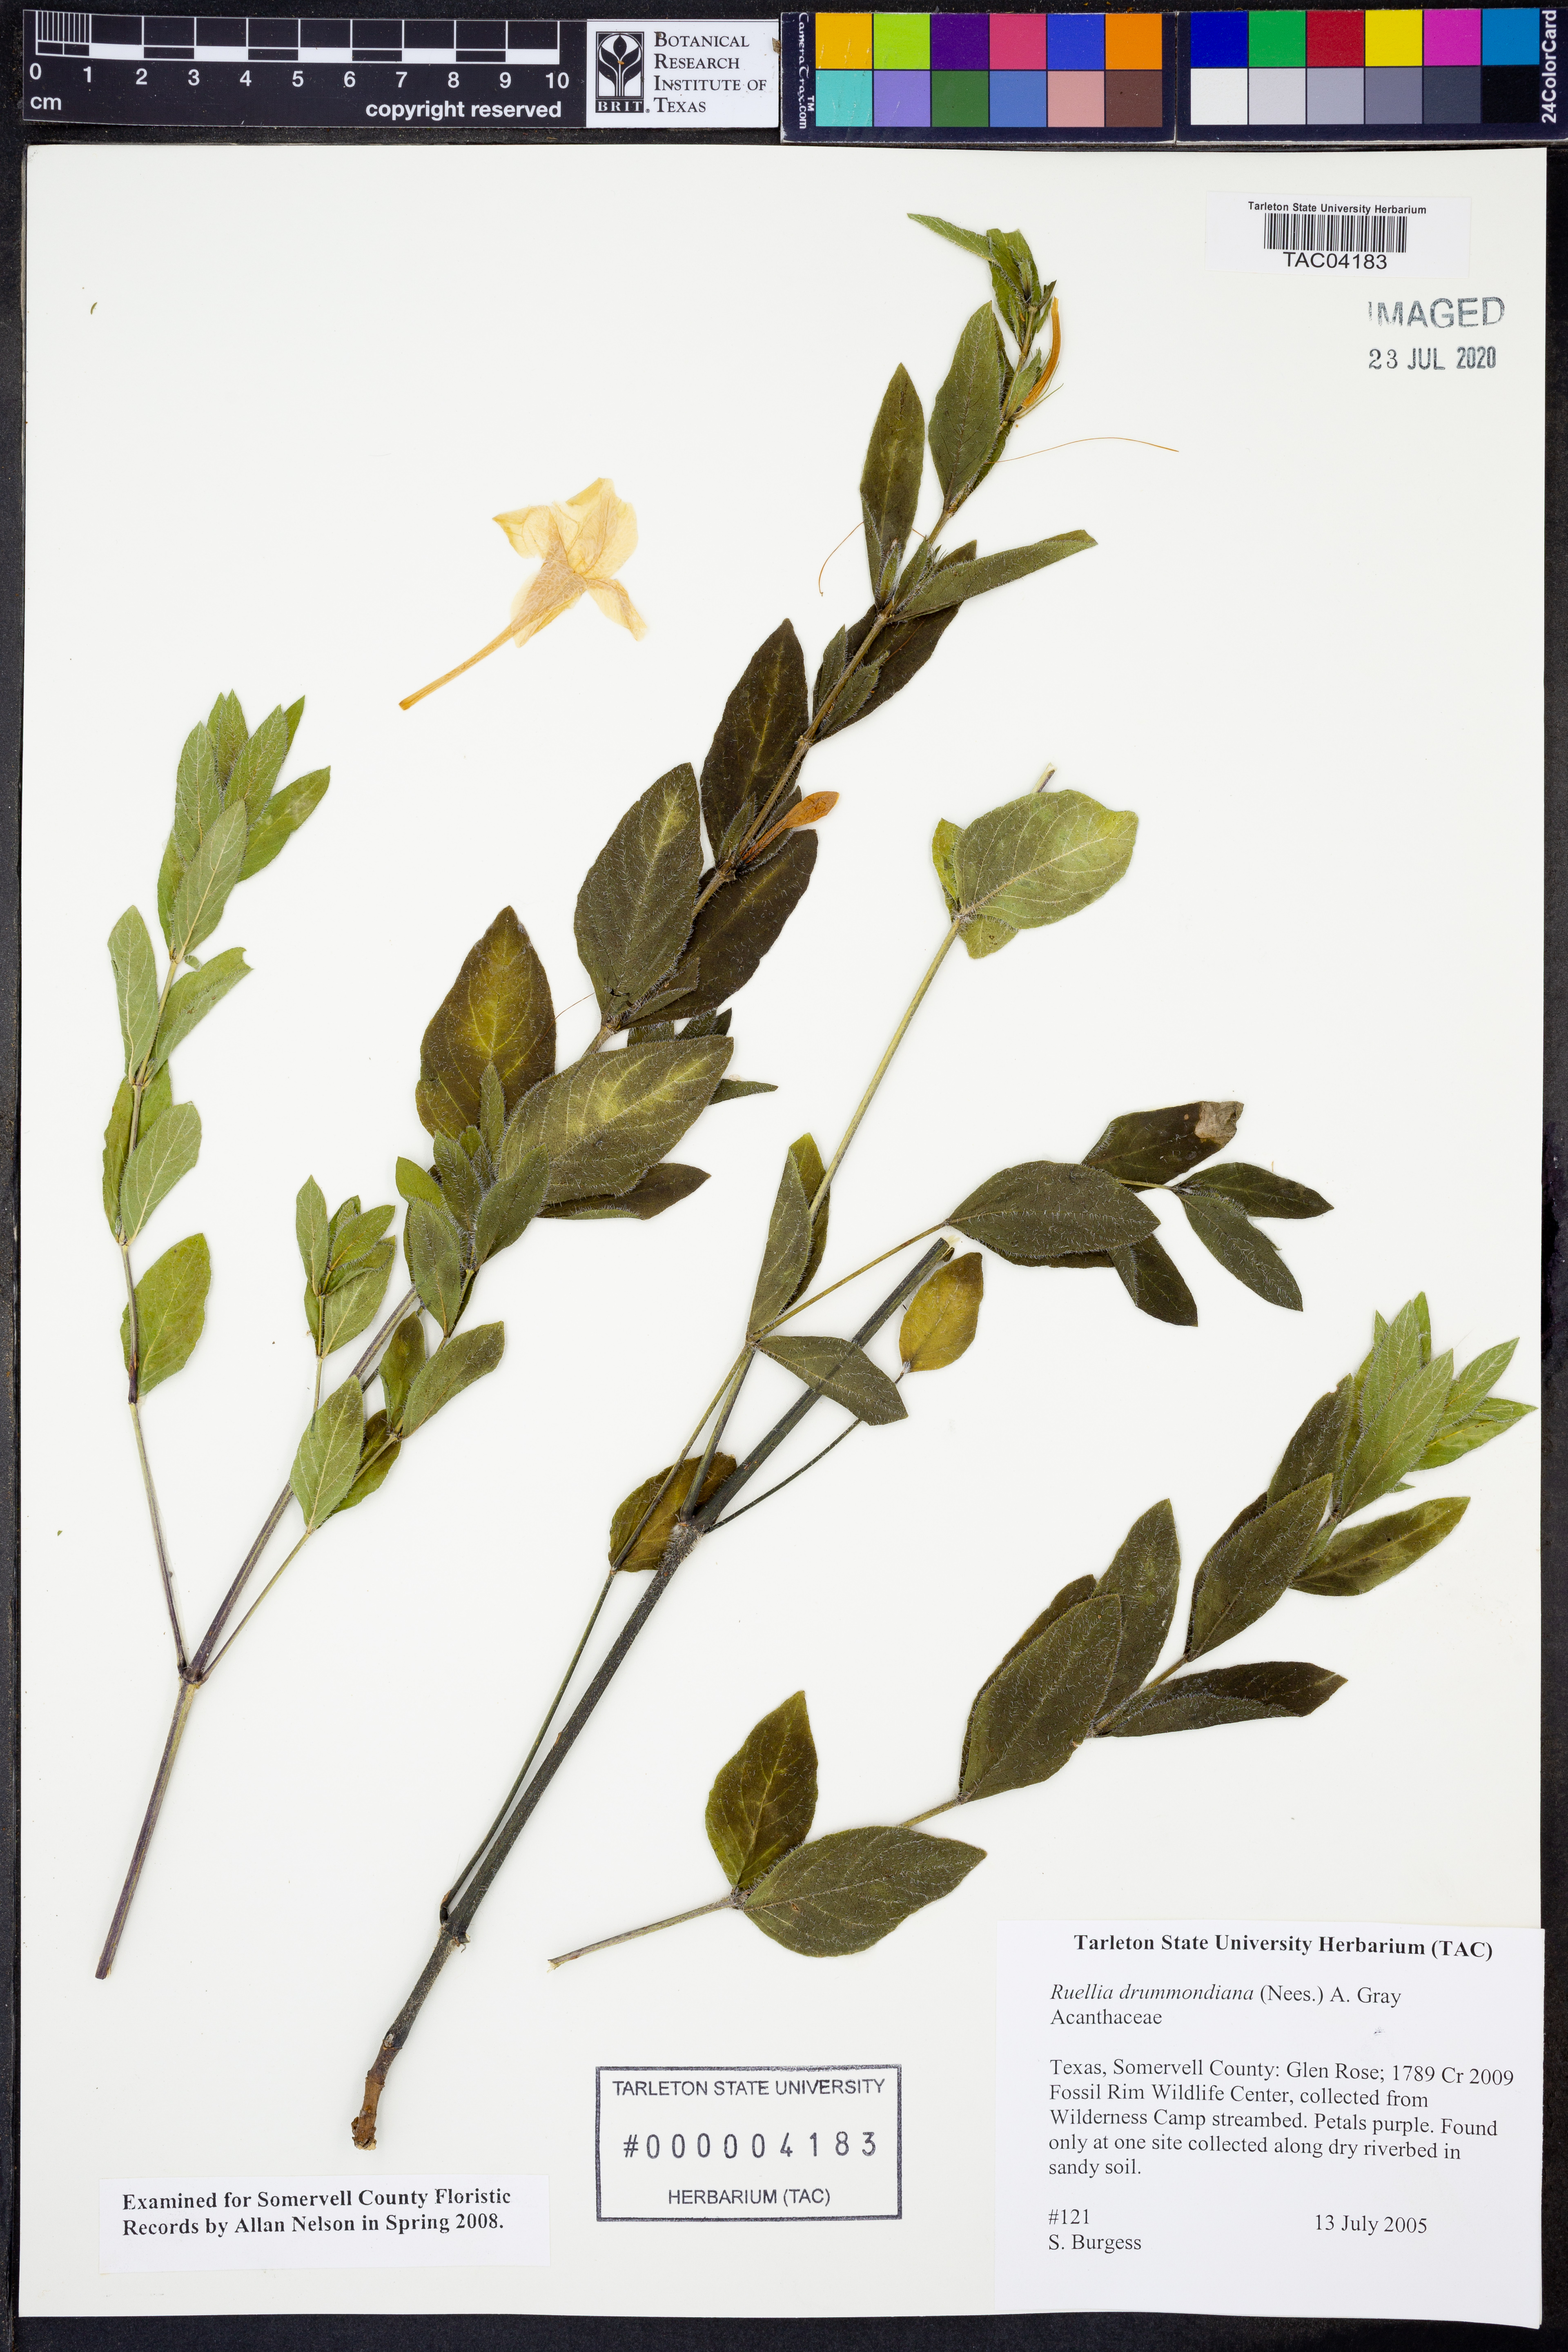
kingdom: Plantae
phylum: Tracheophyta
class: Magnoliopsida
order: Lamiales
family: Acanthaceae
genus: Ruellia
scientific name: Ruellia drummondiana
